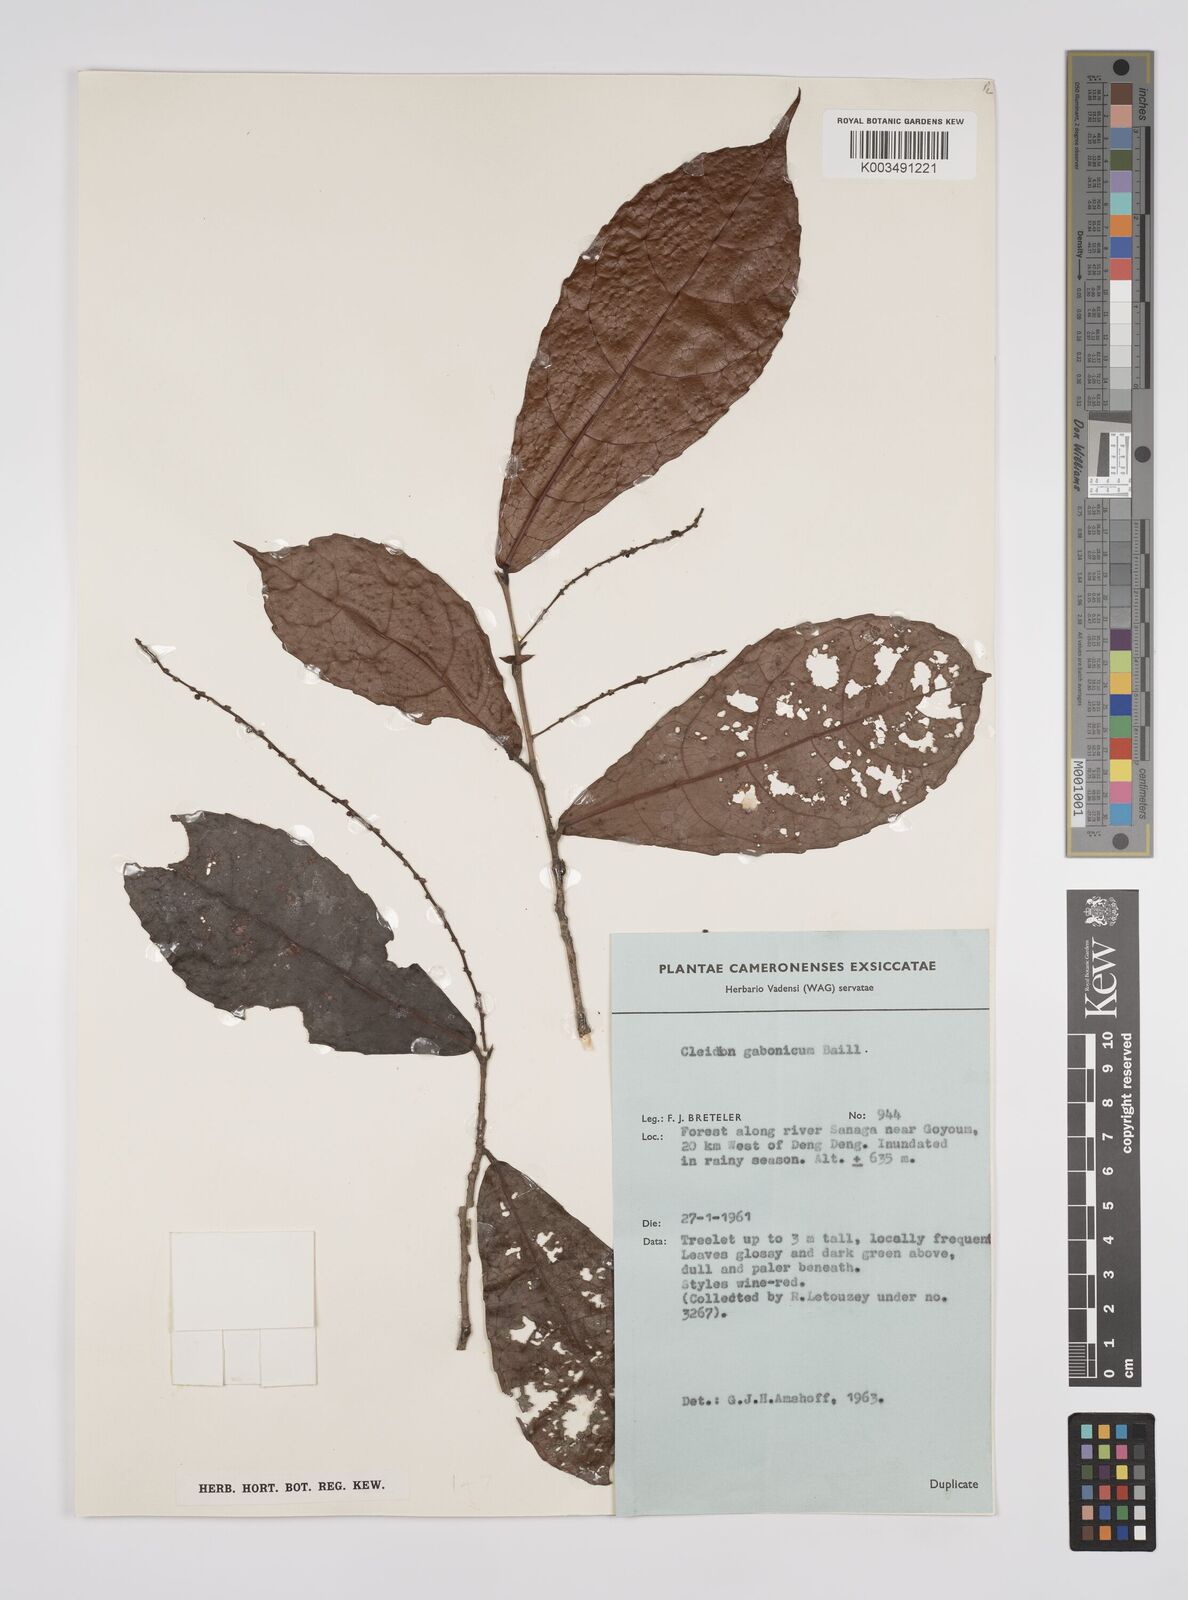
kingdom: Plantae
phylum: Tracheophyta
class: Magnoliopsida
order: Malpighiales
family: Euphorbiaceae
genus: Cleidion
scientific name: Cleidion gabonicum
